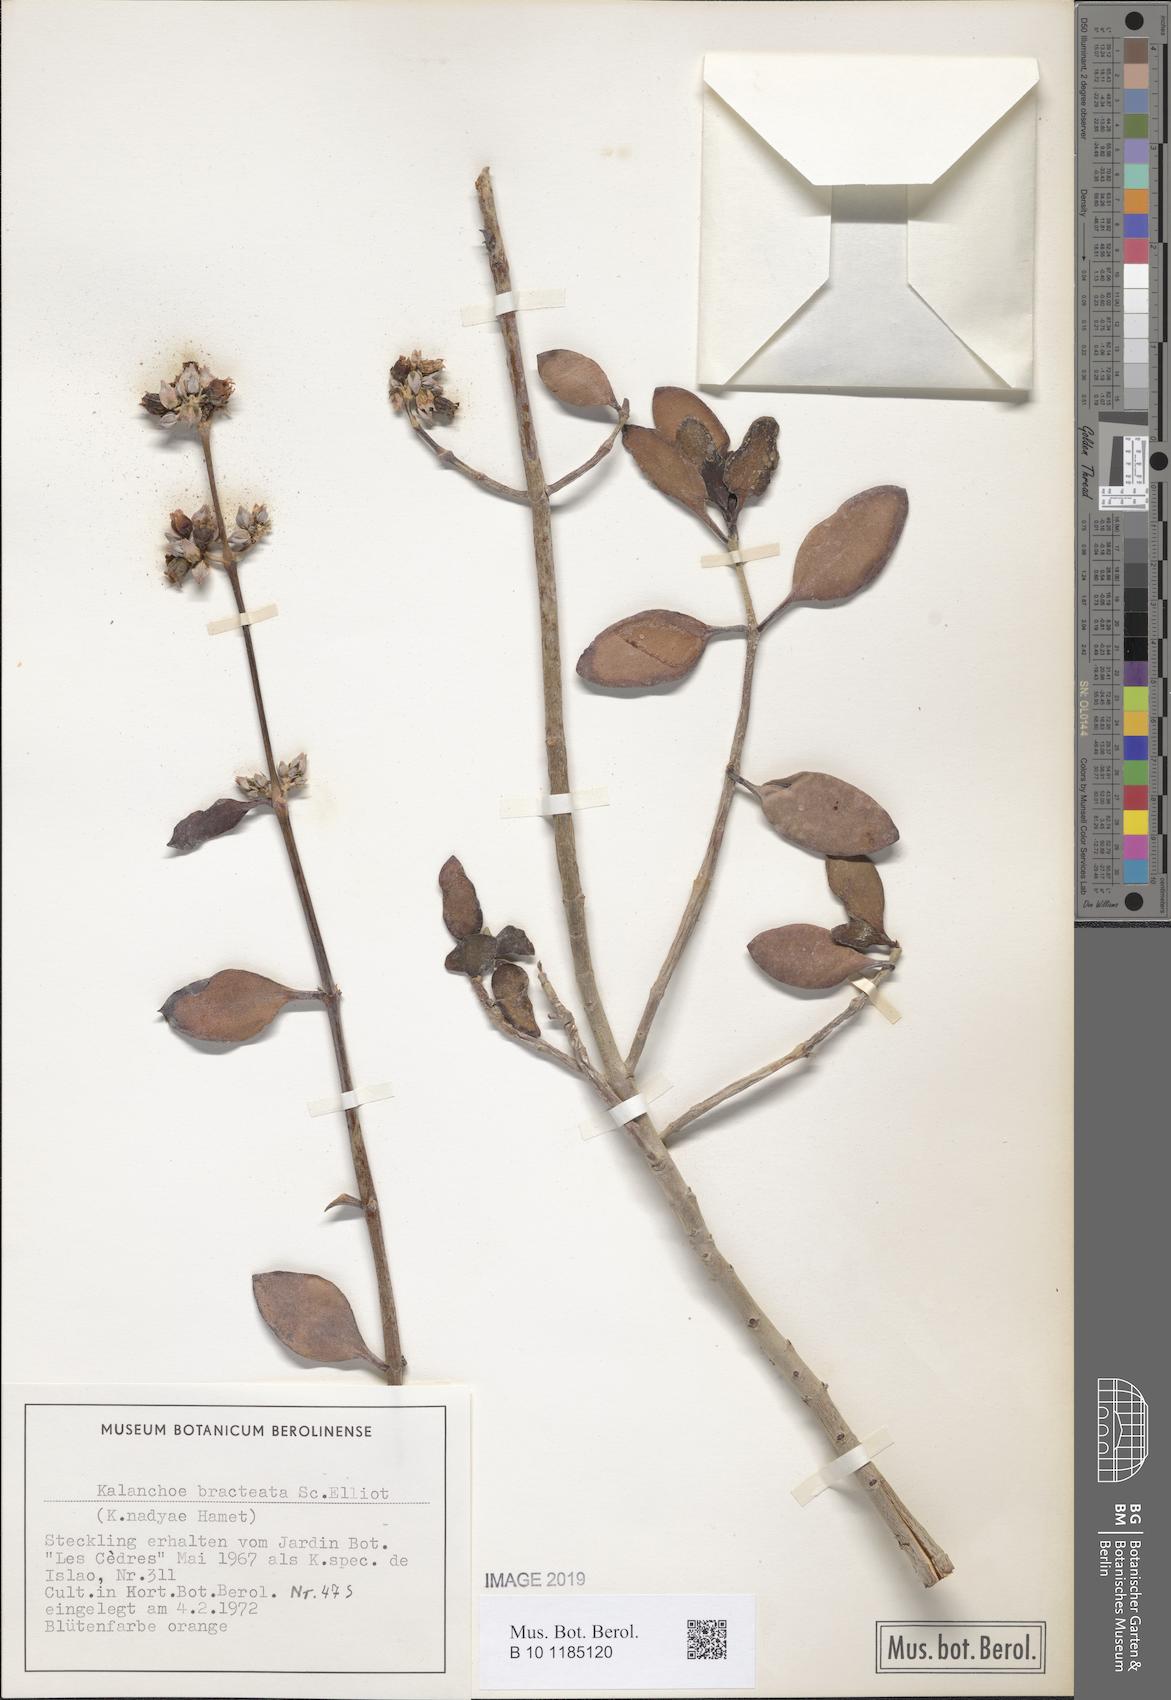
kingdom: Plantae
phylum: Tracheophyta
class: Magnoliopsida
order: Saxifragales
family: Crassulaceae
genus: Kalanchoe
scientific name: Kalanchoe bracteata
